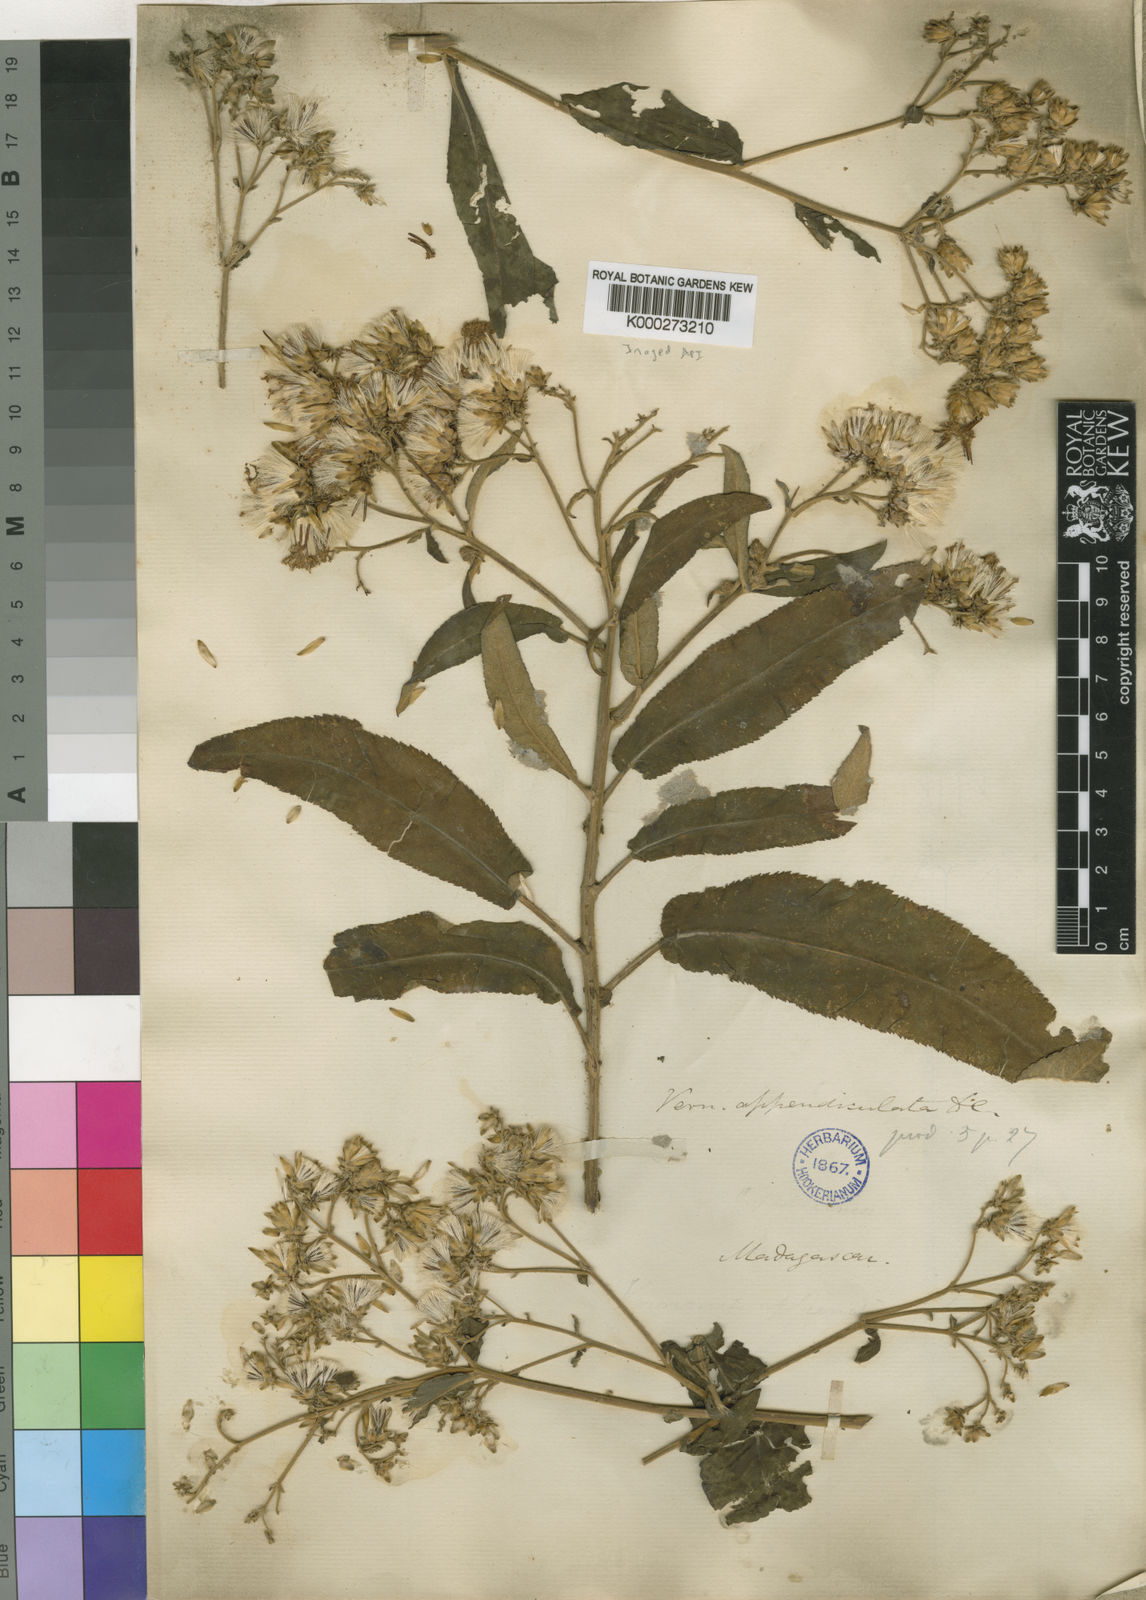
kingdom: Plantae
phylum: Tracheophyta
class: Magnoliopsida
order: Asterales
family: Asteraceae
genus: Gymnanthemum
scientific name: Gymnanthemum appendiculatum
